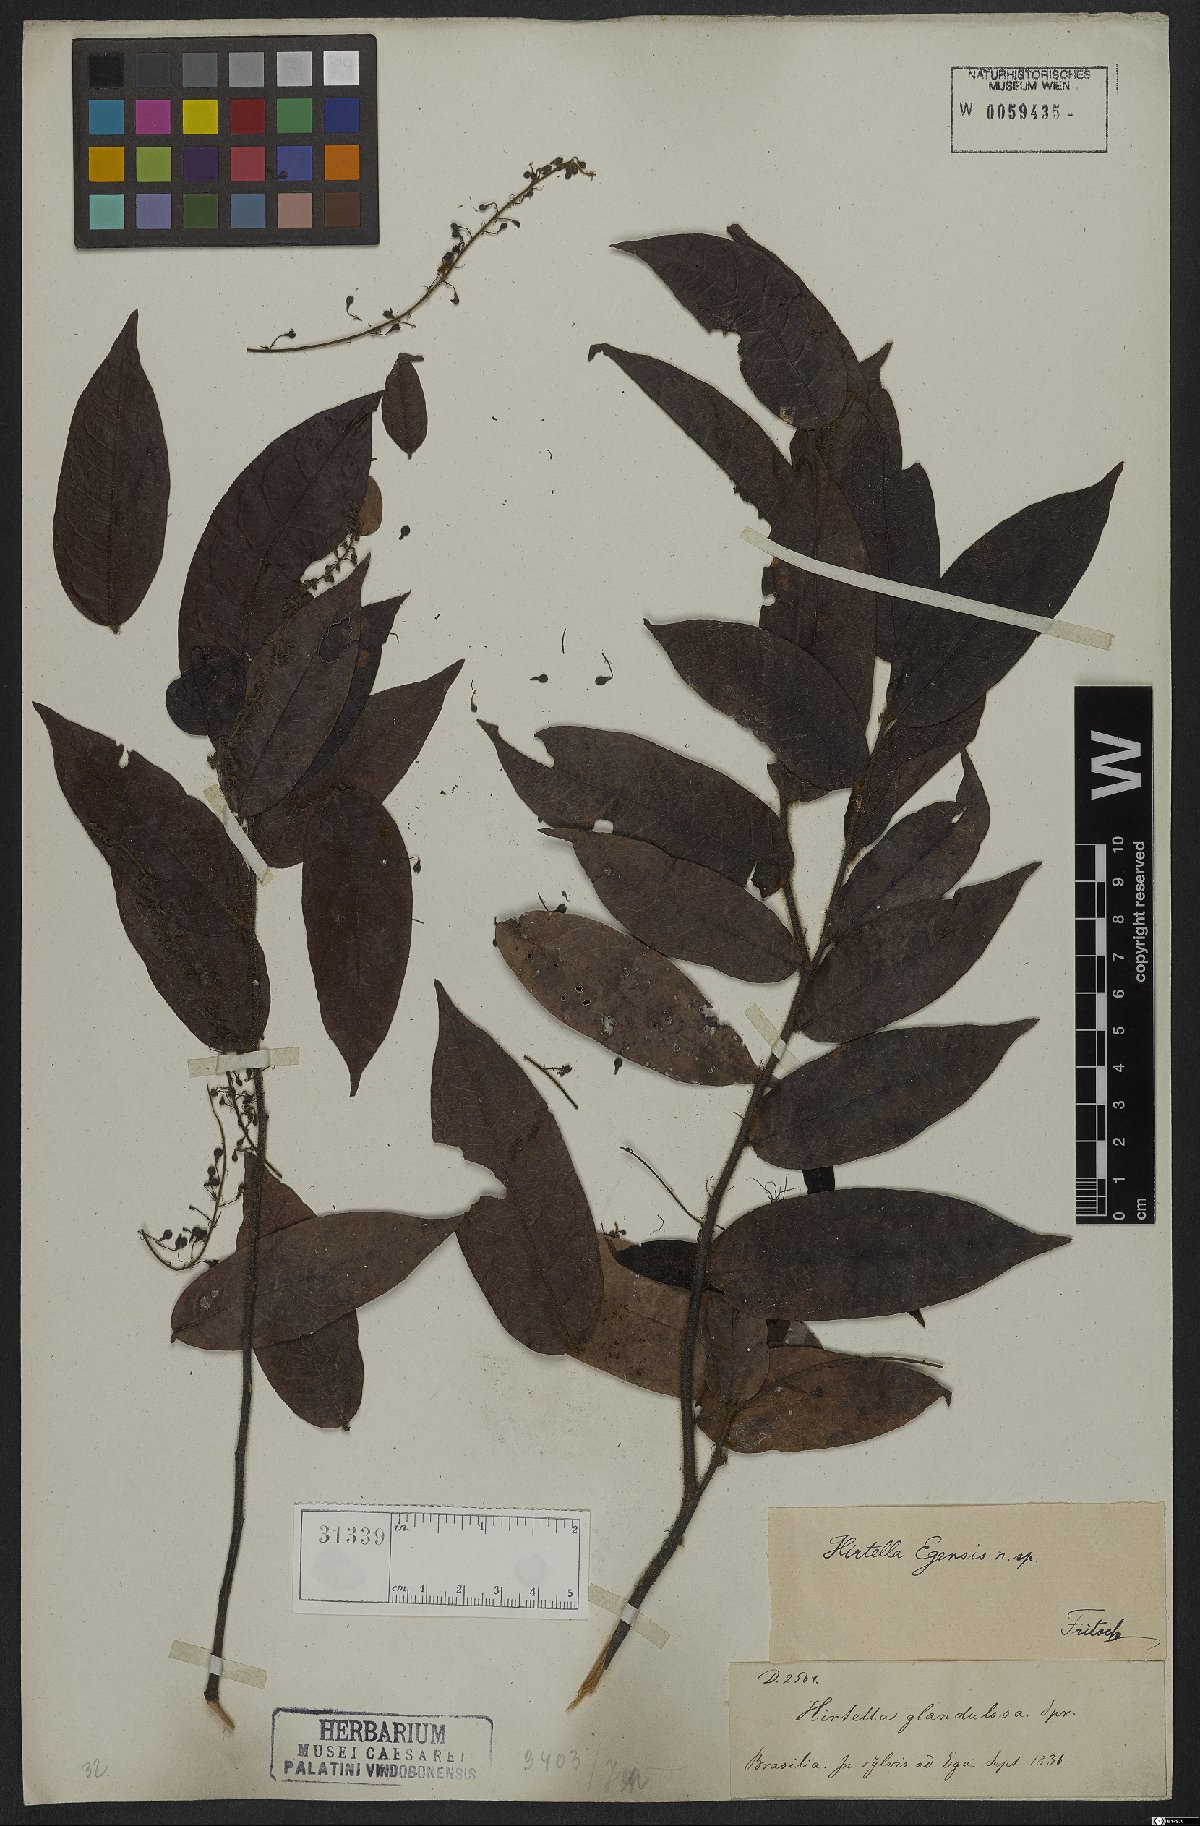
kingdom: Plantae
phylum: Tracheophyta
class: Magnoliopsida
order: Malpighiales
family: Chrysobalanaceae
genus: Hirtella
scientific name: Hirtella hispidula
